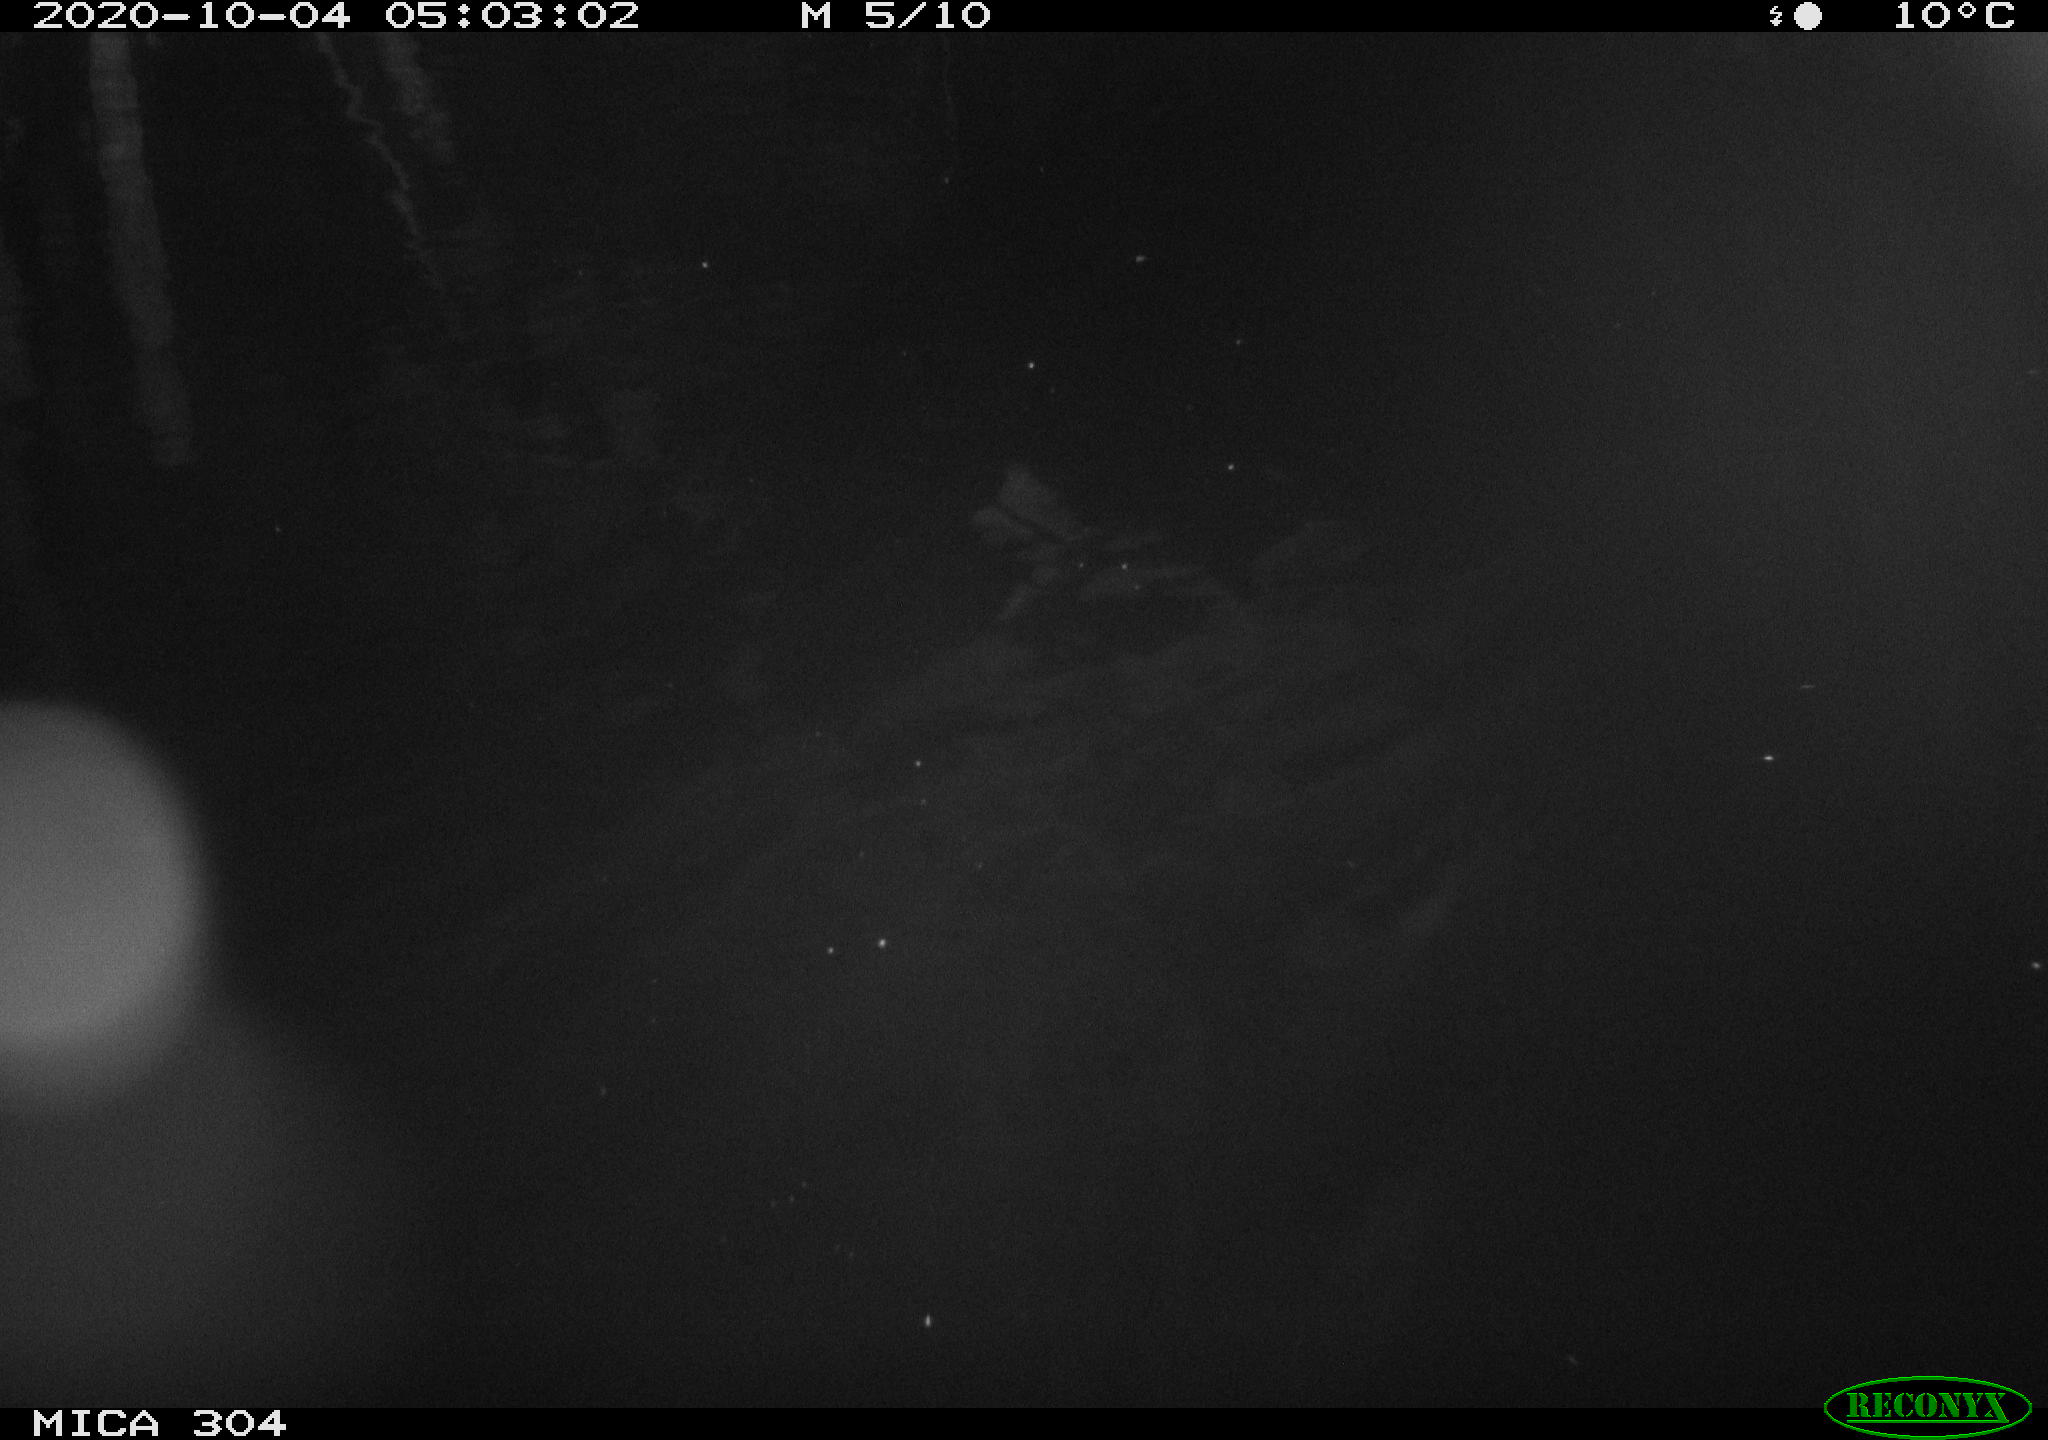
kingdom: Animalia
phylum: Chordata
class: Mammalia
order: Rodentia
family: Muridae
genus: Rattus
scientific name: Rattus norvegicus
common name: Brown rat
